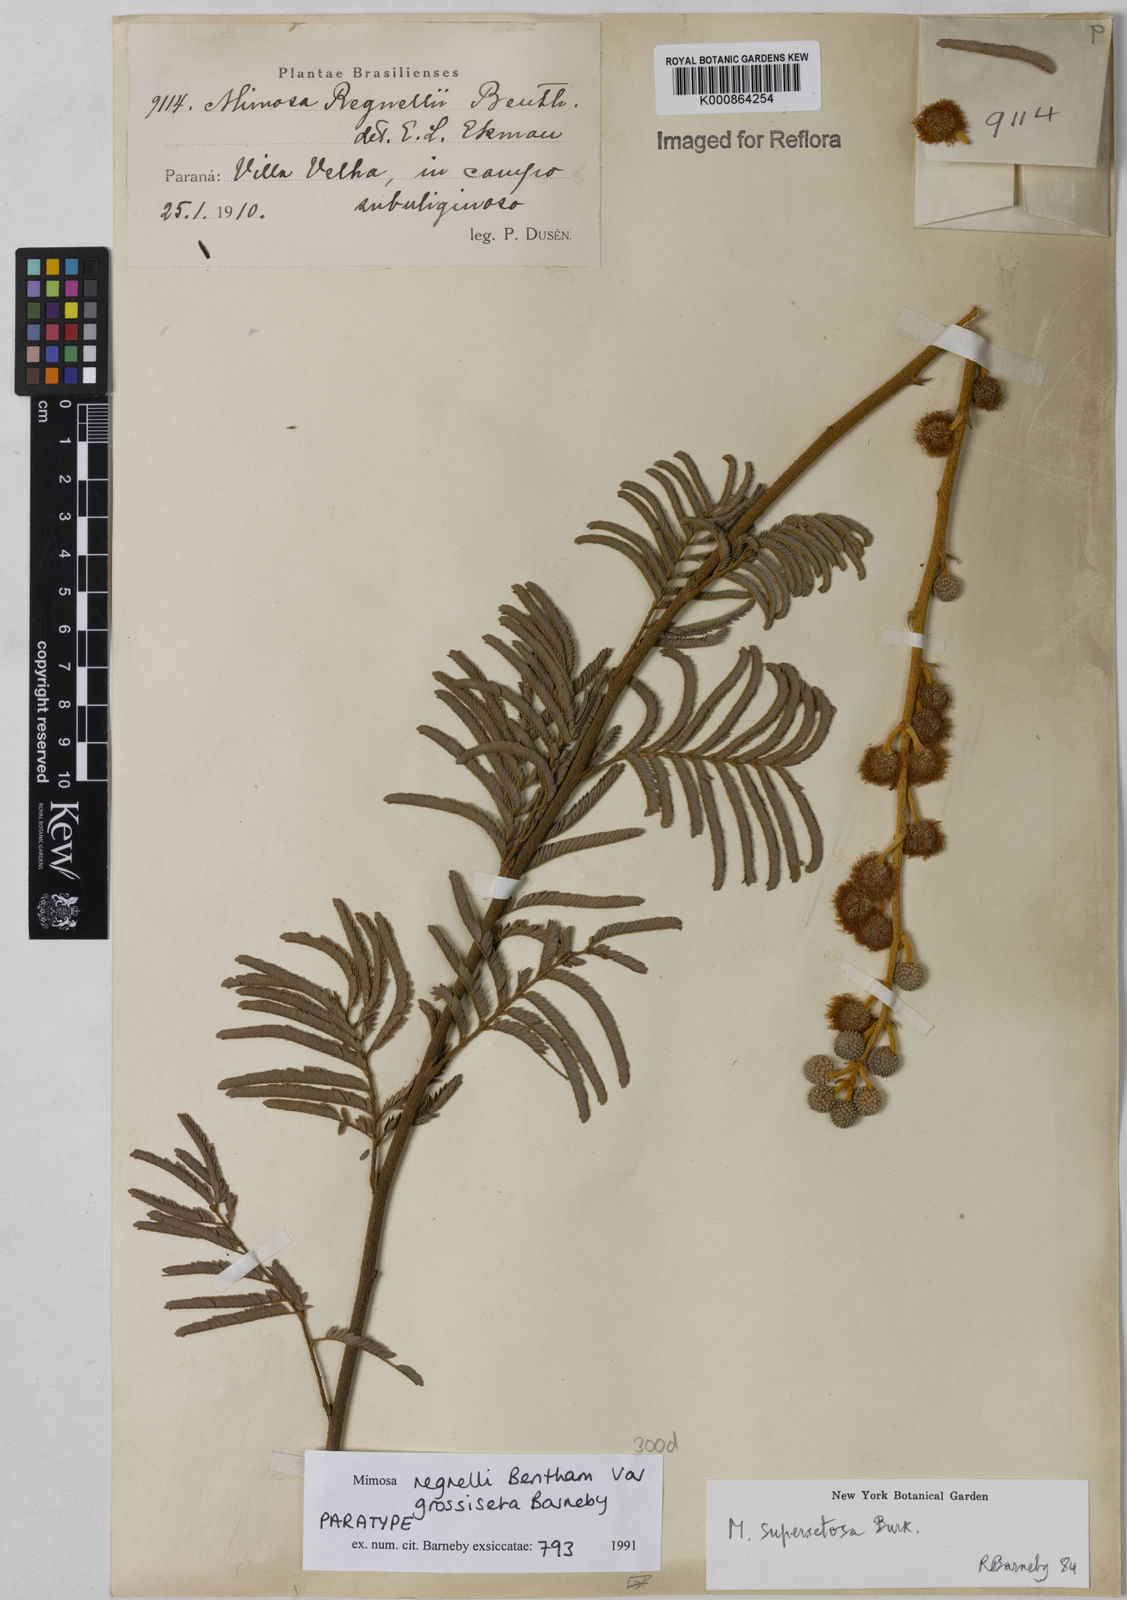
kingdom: Plantae
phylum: Tracheophyta
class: Magnoliopsida
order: Fabales
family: Fabaceae
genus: Mimosa
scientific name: Mimosa regnellii
